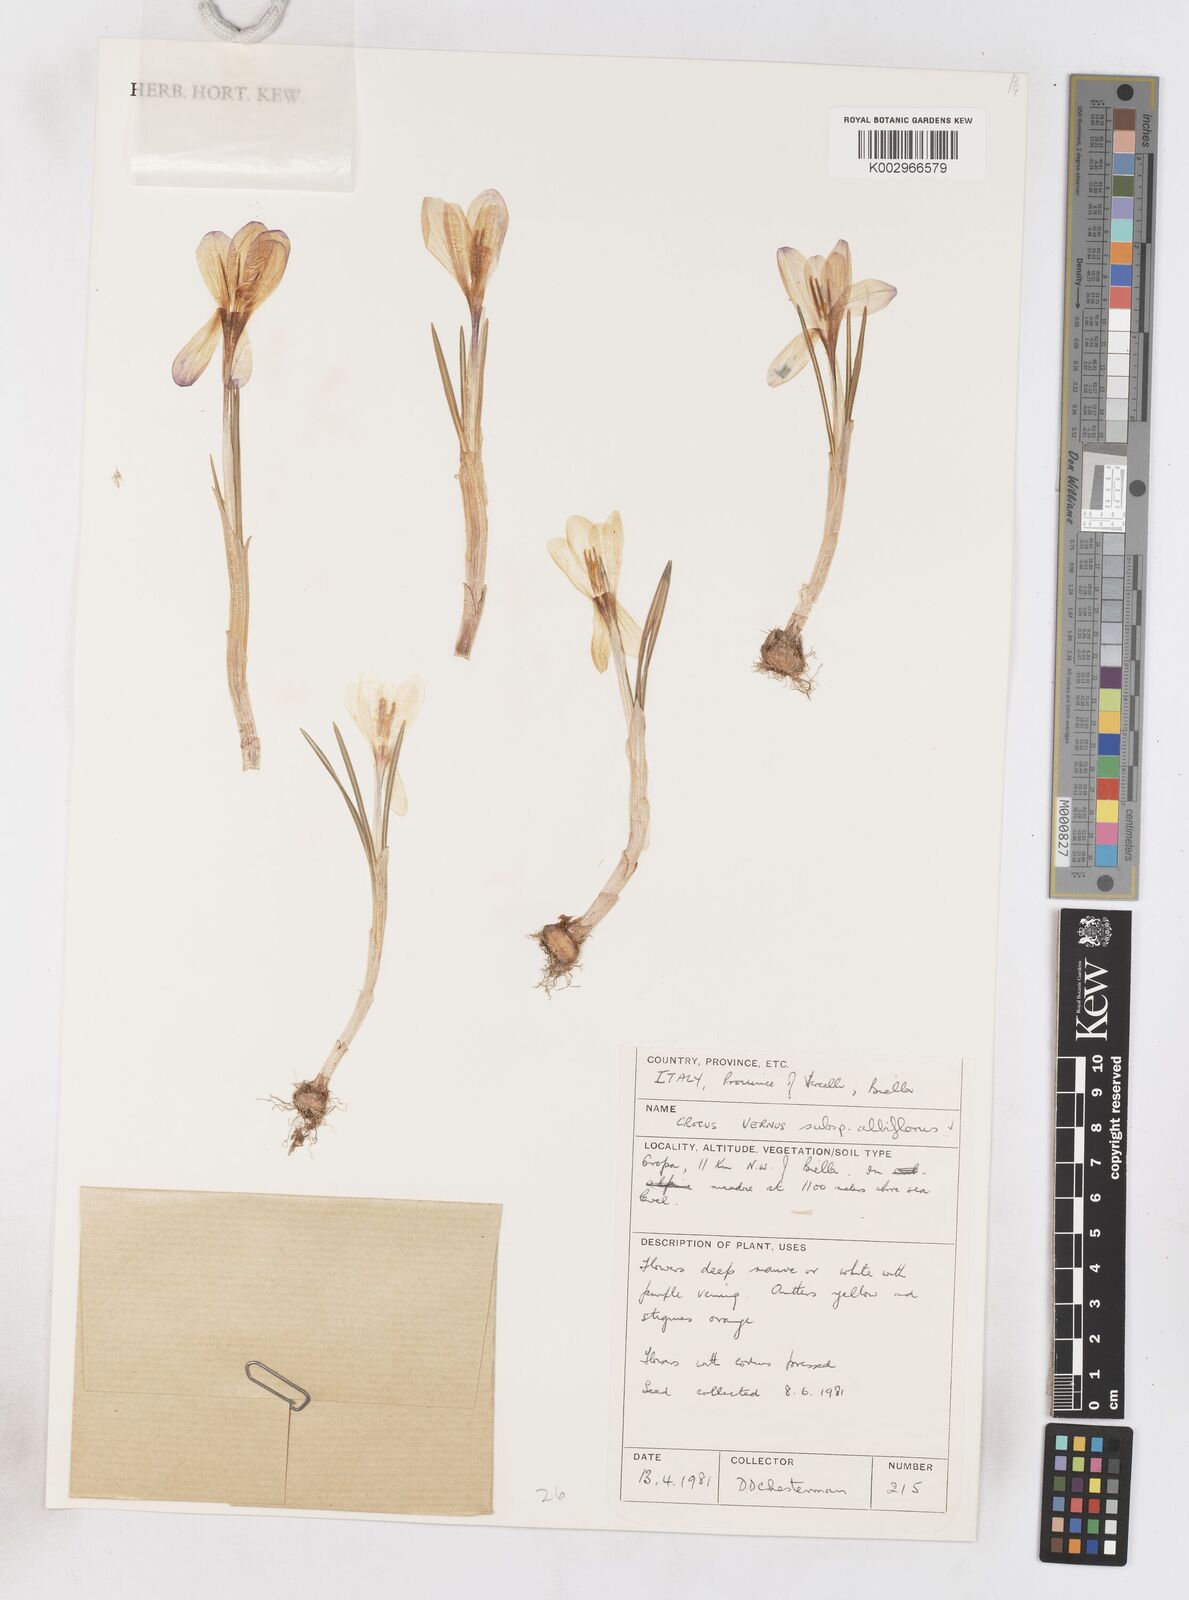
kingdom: Plantae
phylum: Tracheophyta
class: Liliopsida
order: Asparagales
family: Iridaceae
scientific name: Iridaceae
